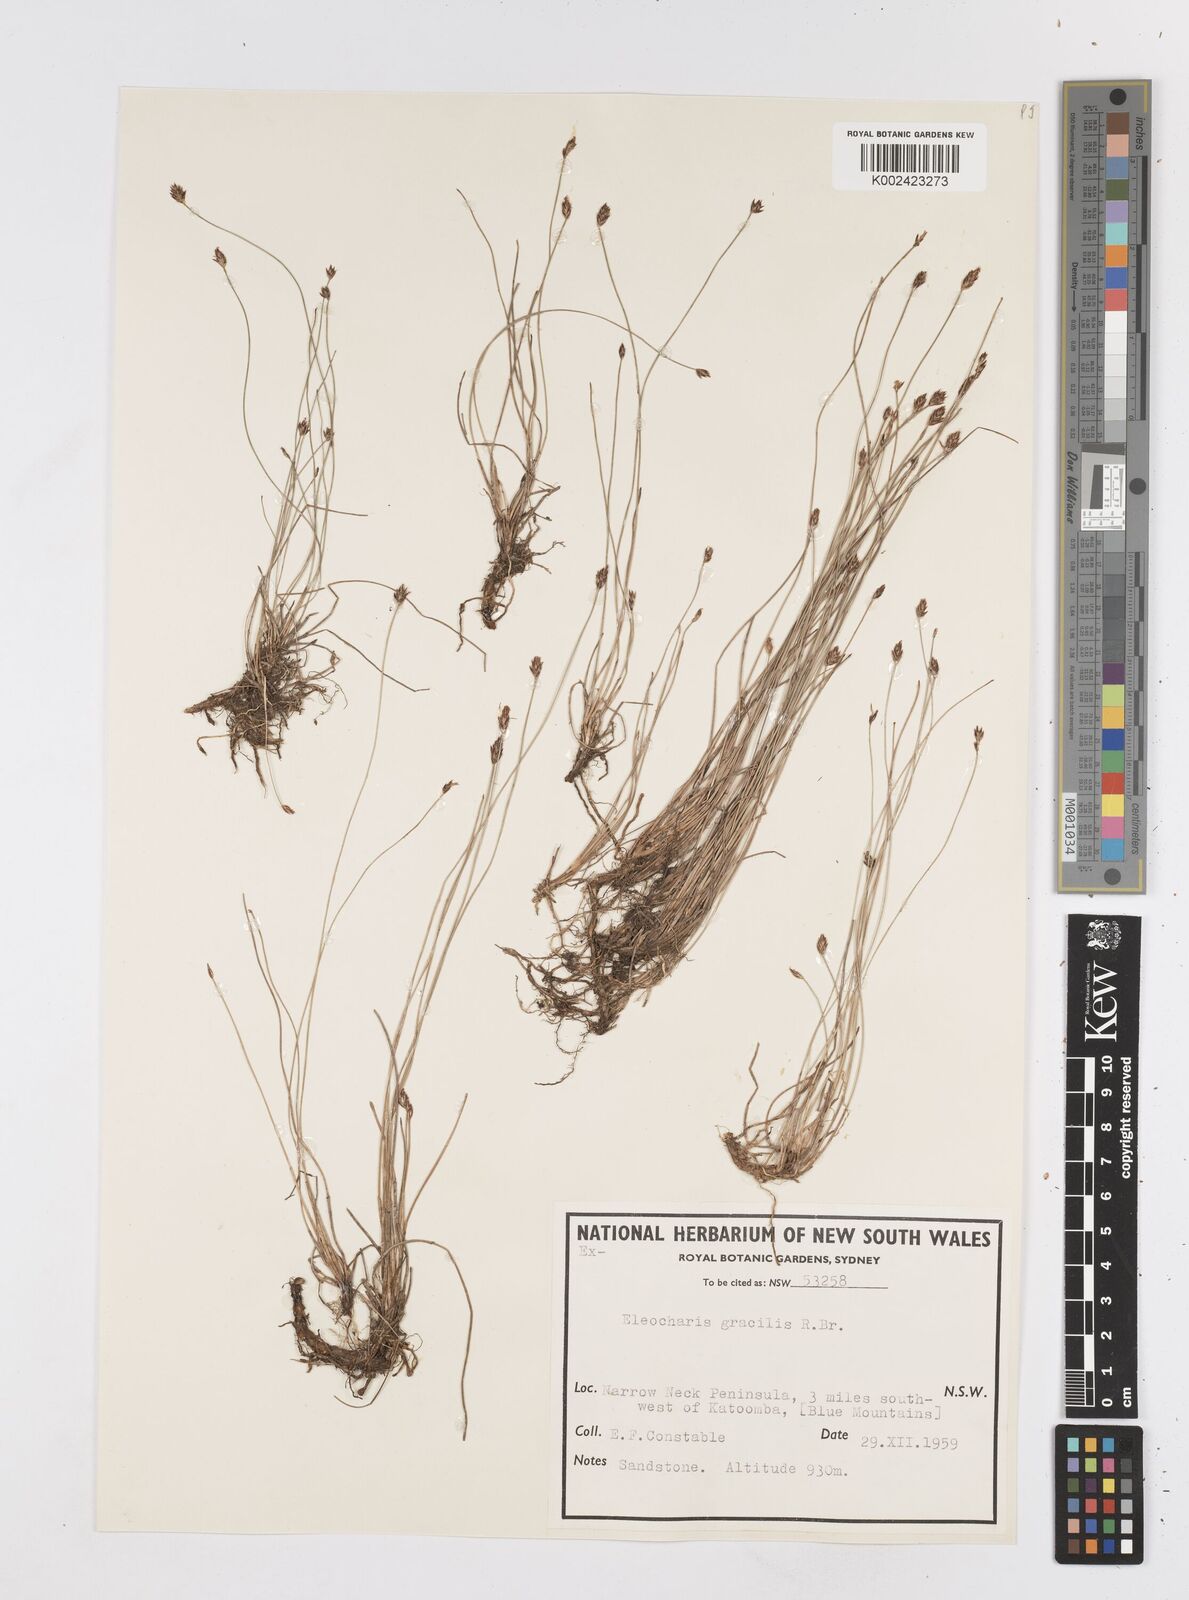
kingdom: Plantae
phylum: Tracheophyta
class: Liliopsida
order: Poales
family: Cyperaceae
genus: Eleocharis
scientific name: Eleocharis multicaulis
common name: Many-stalked spike-rush
